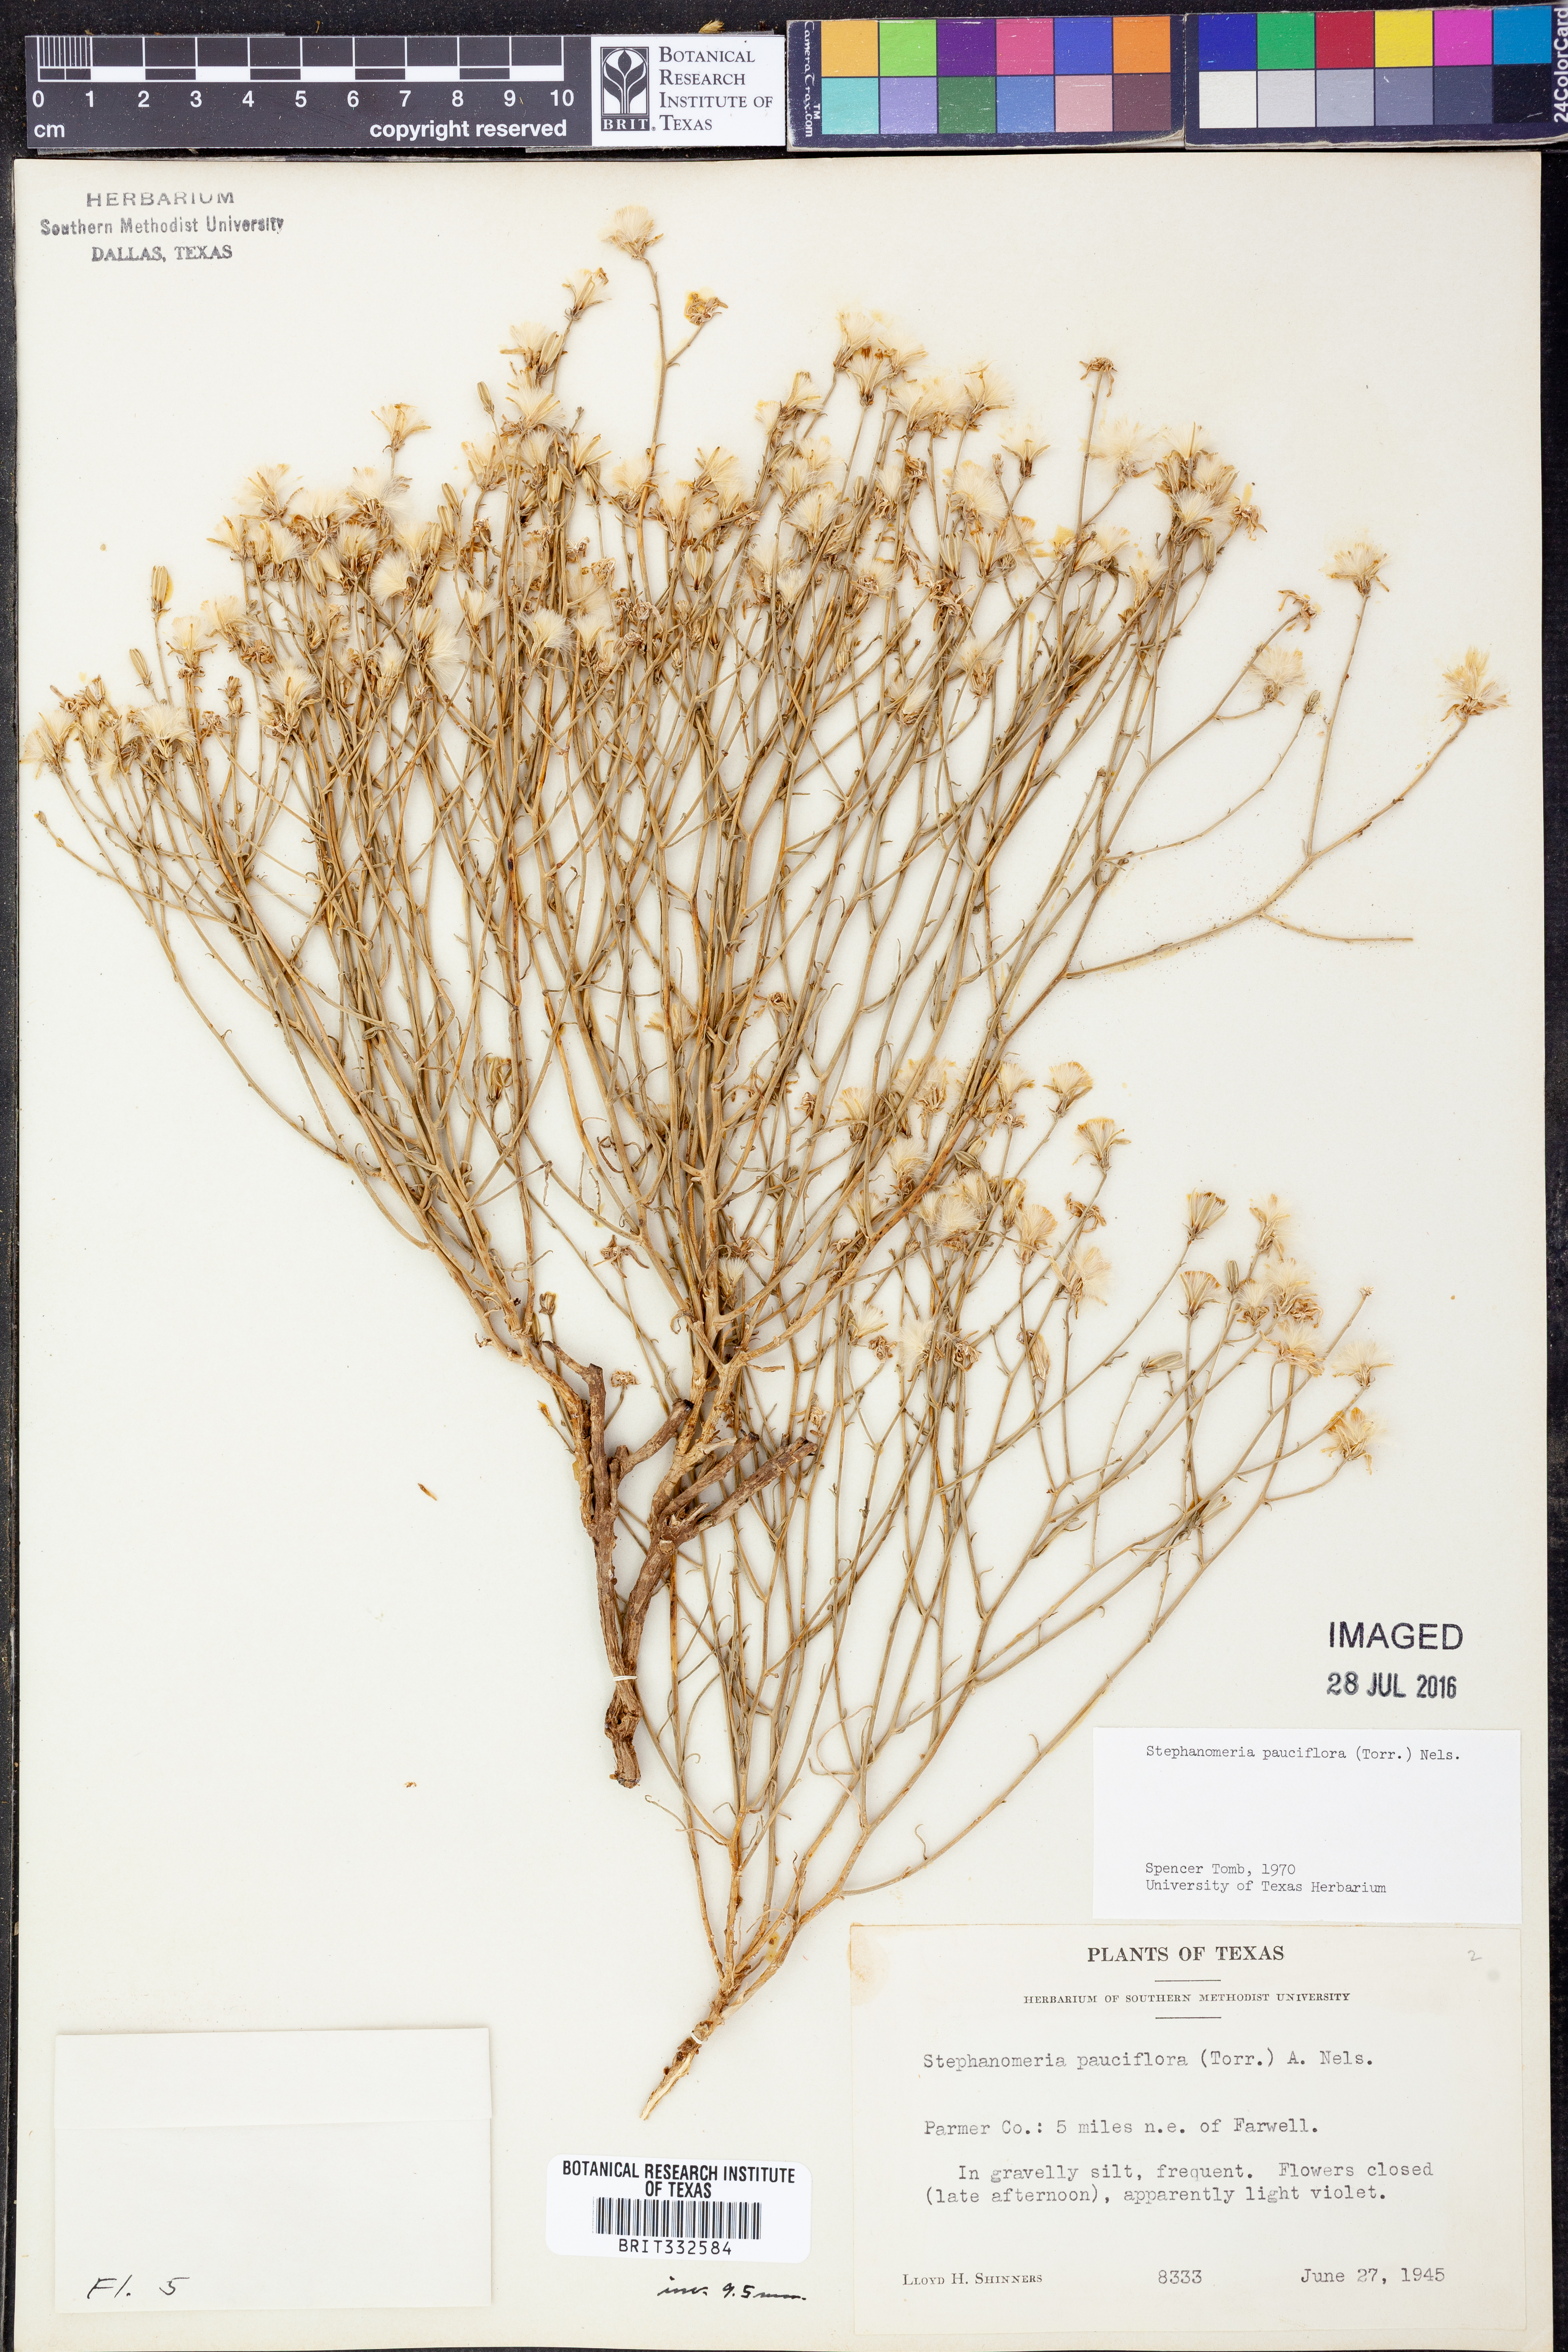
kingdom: Plantae
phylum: Tracheophyta
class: Magnoliopsida
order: Asterales
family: Asteraceae
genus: Stephanomeria
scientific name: Stephanomeria pauciflora
